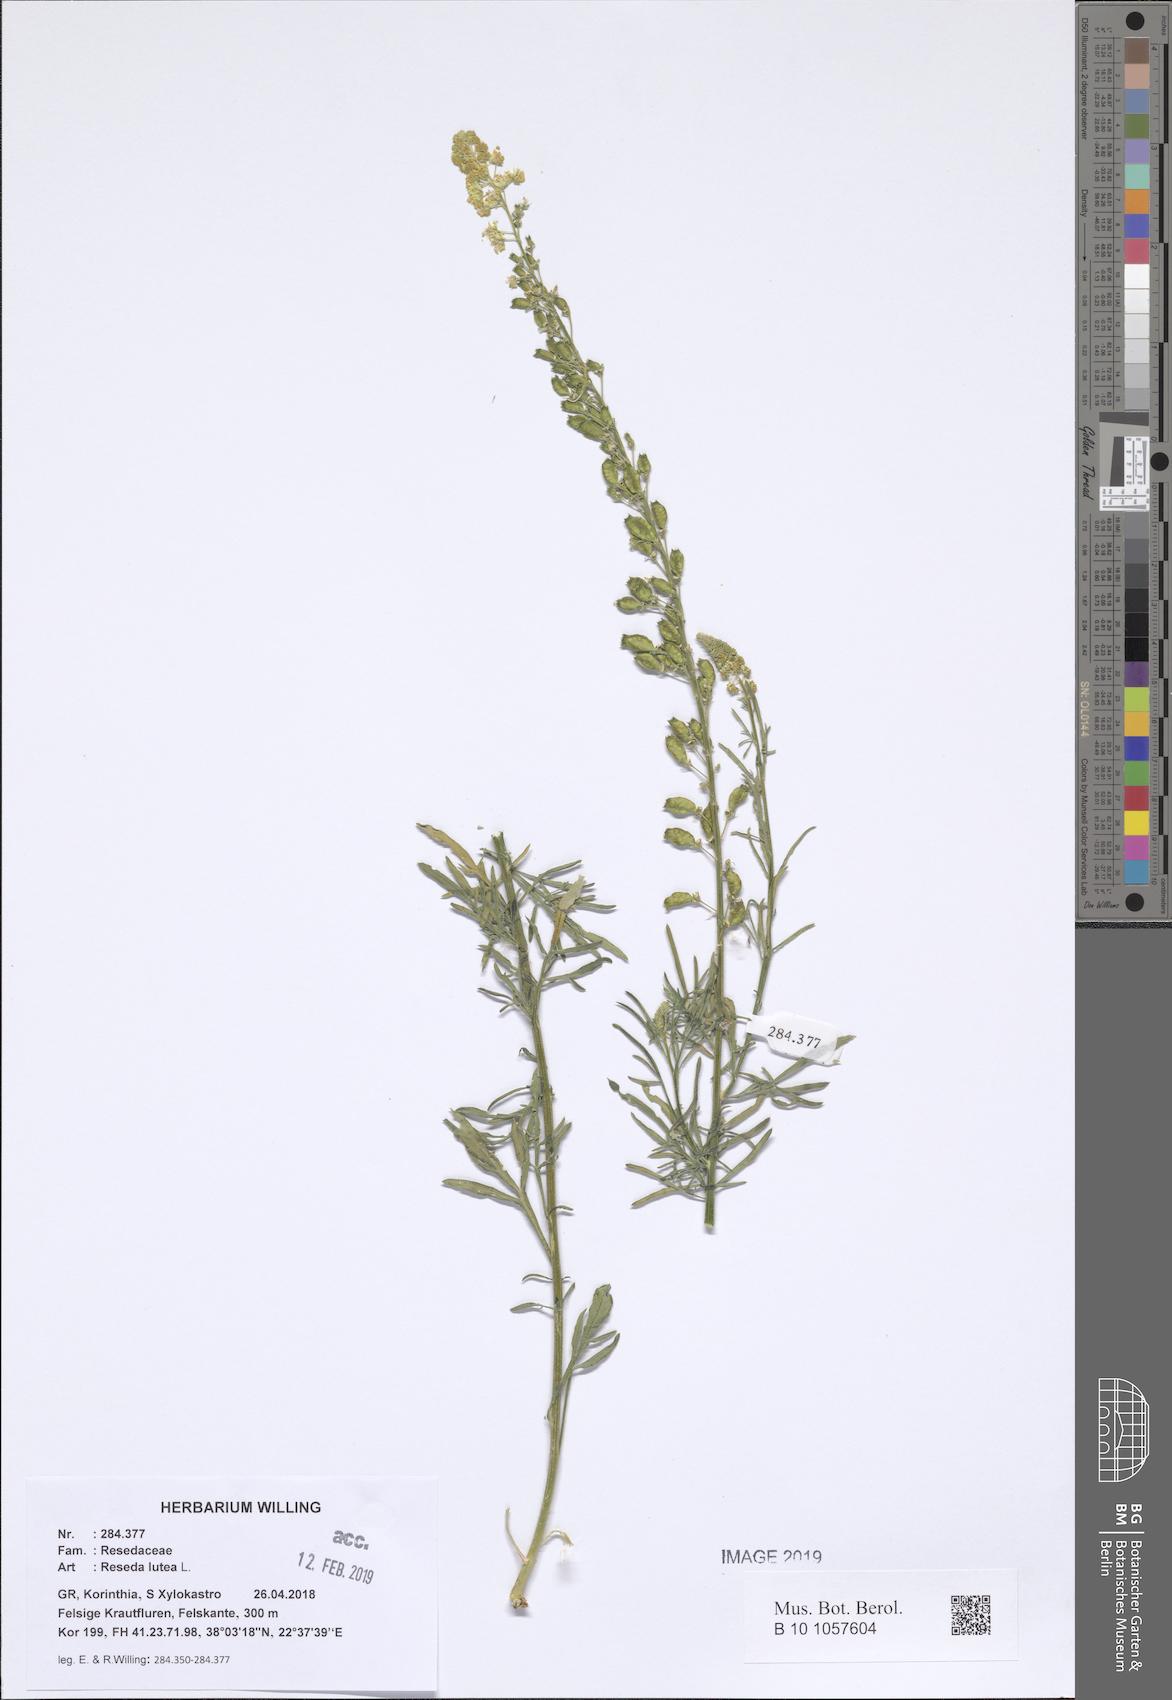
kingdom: Plantae
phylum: Tracheophyta
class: Magnoliopsida
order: Brassicales
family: Resedaceae
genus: Reseda
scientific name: Reseda lutea
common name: Wild mignonette
